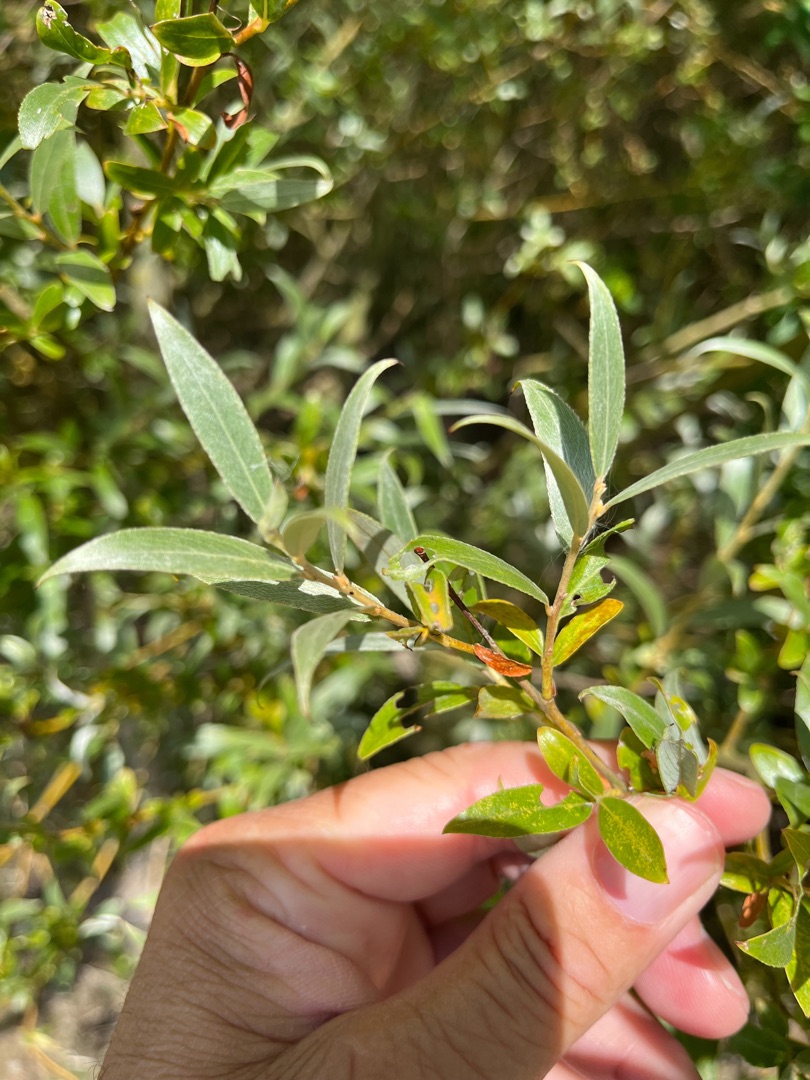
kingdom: Plantae
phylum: Tracheophyta
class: Magnoliopsida
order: Malpighiales
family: Salicaceae
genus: Salix
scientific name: Salix alba
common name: Hvid-pil
